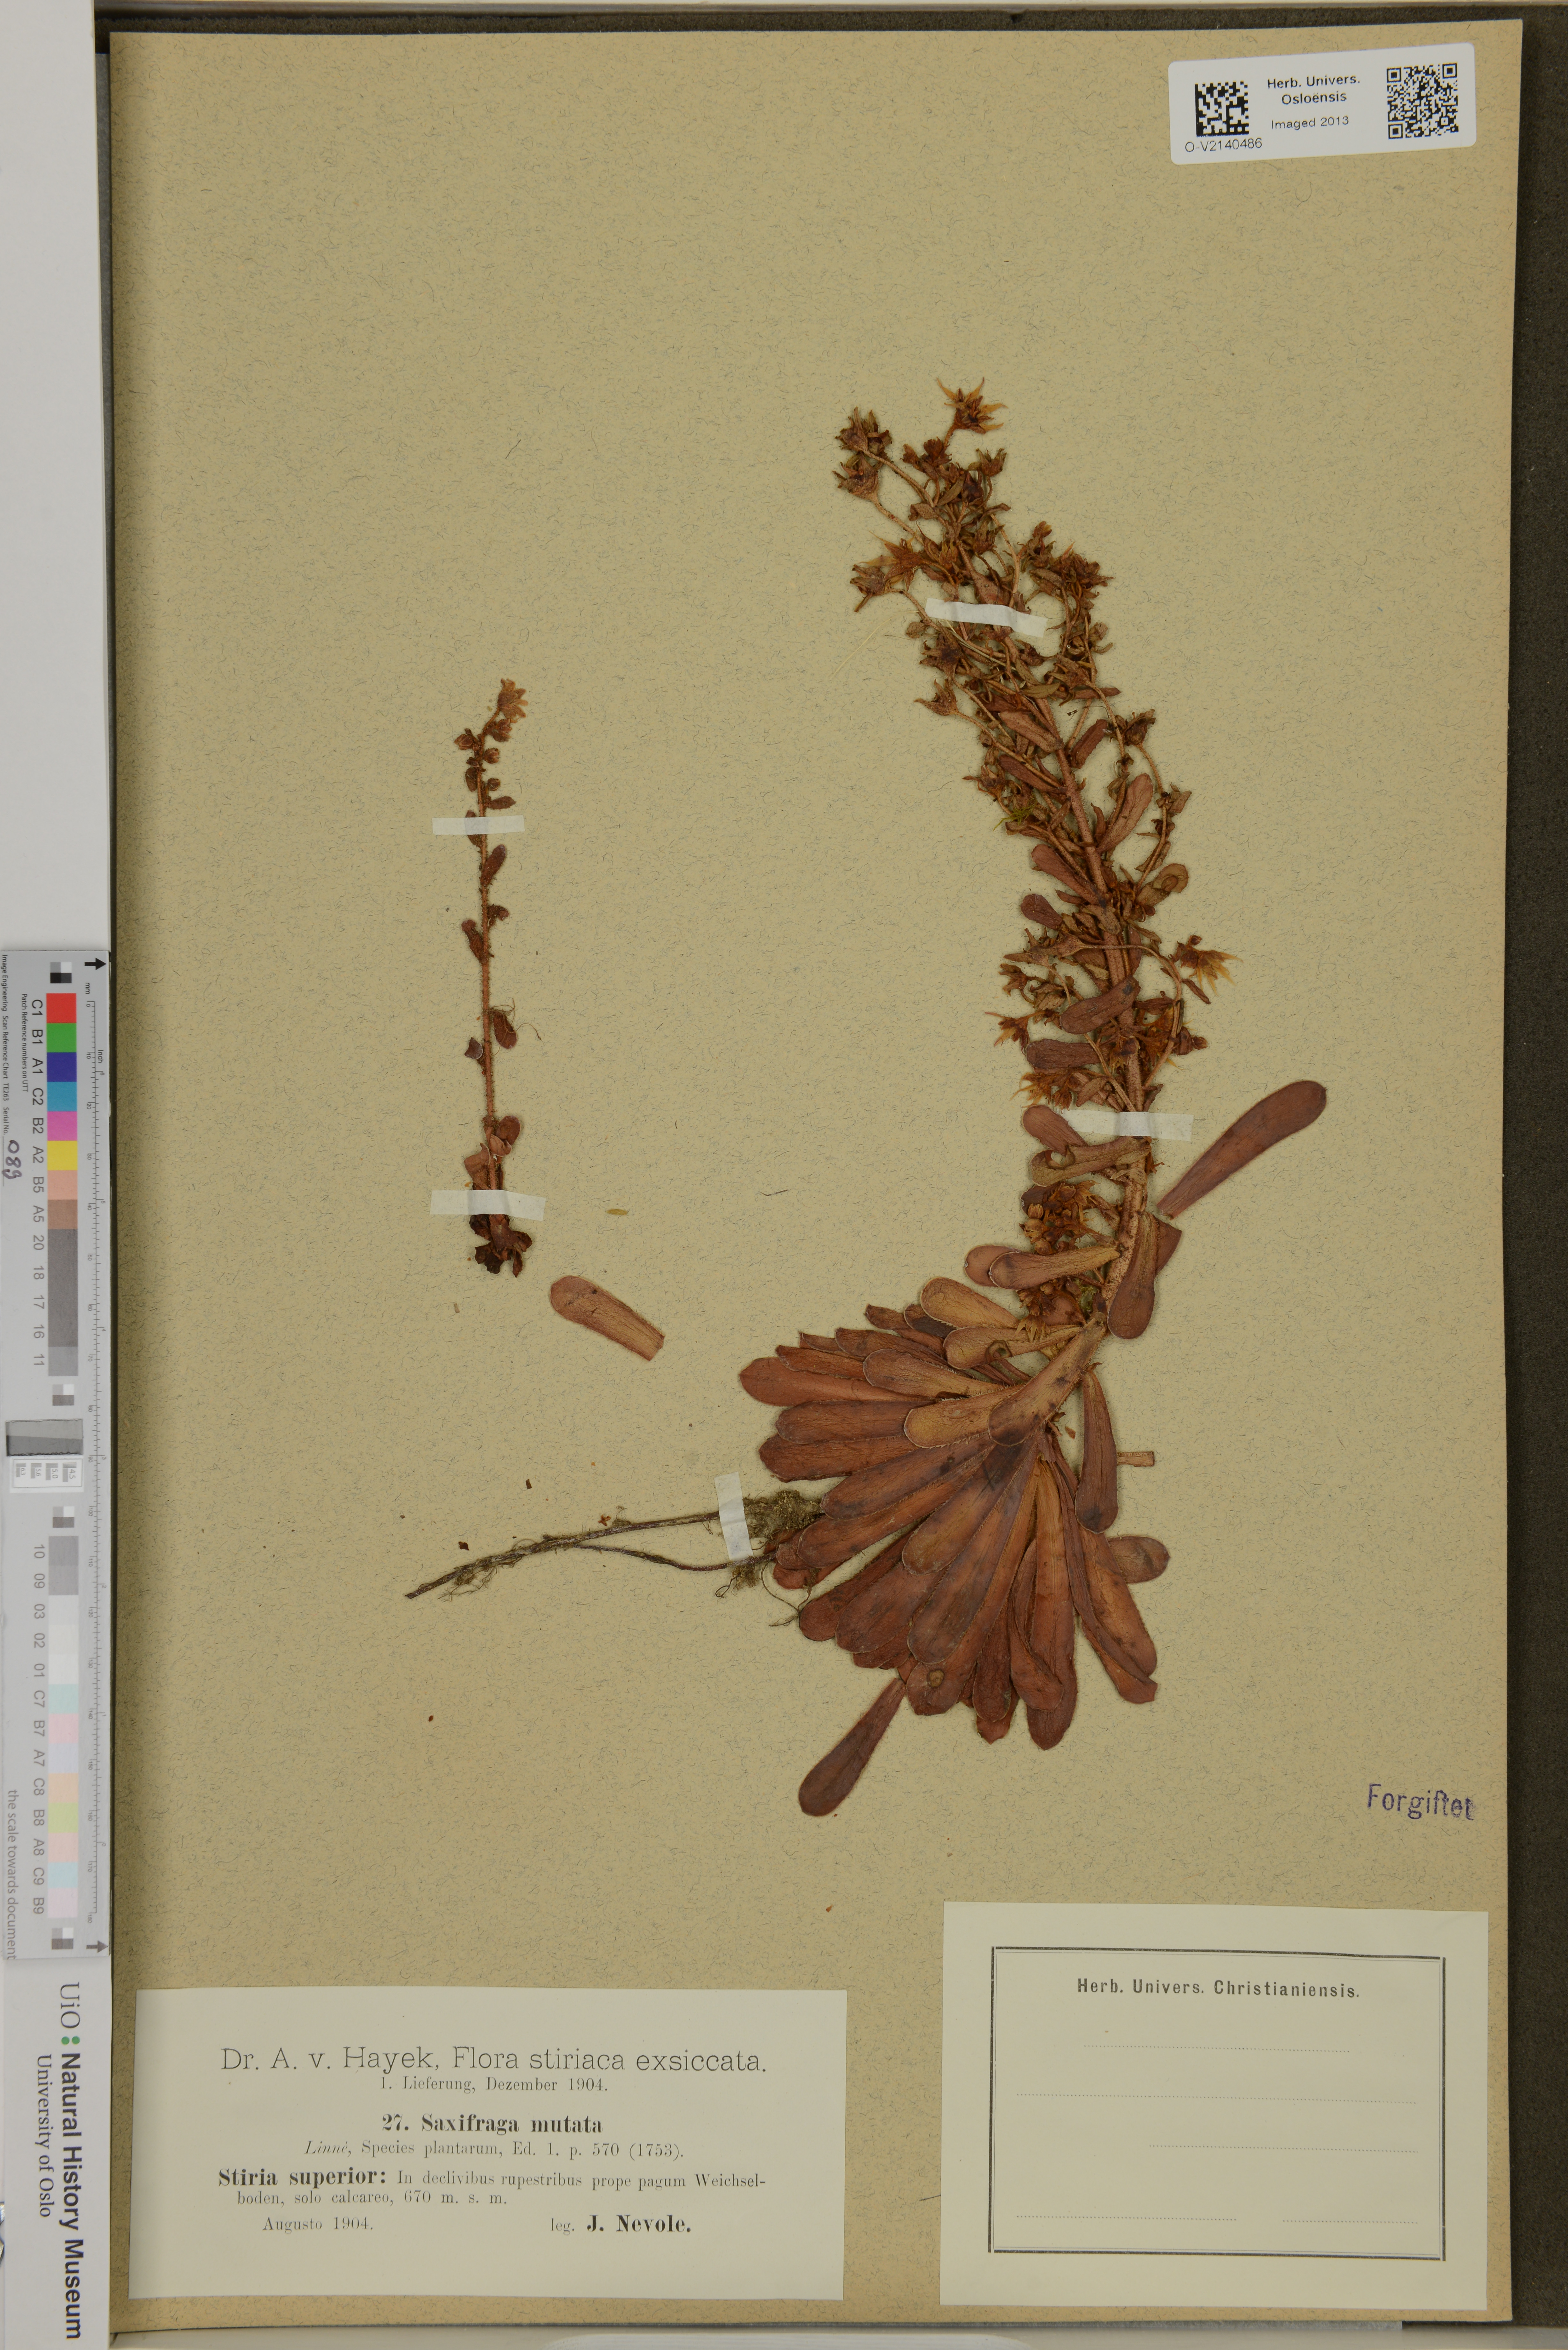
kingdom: Plantae
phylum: Tracheophyta
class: Magnoliopsida
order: Saxifragales
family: Saxifragaceae
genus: Saxifraga
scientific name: Saxifraga mutata
